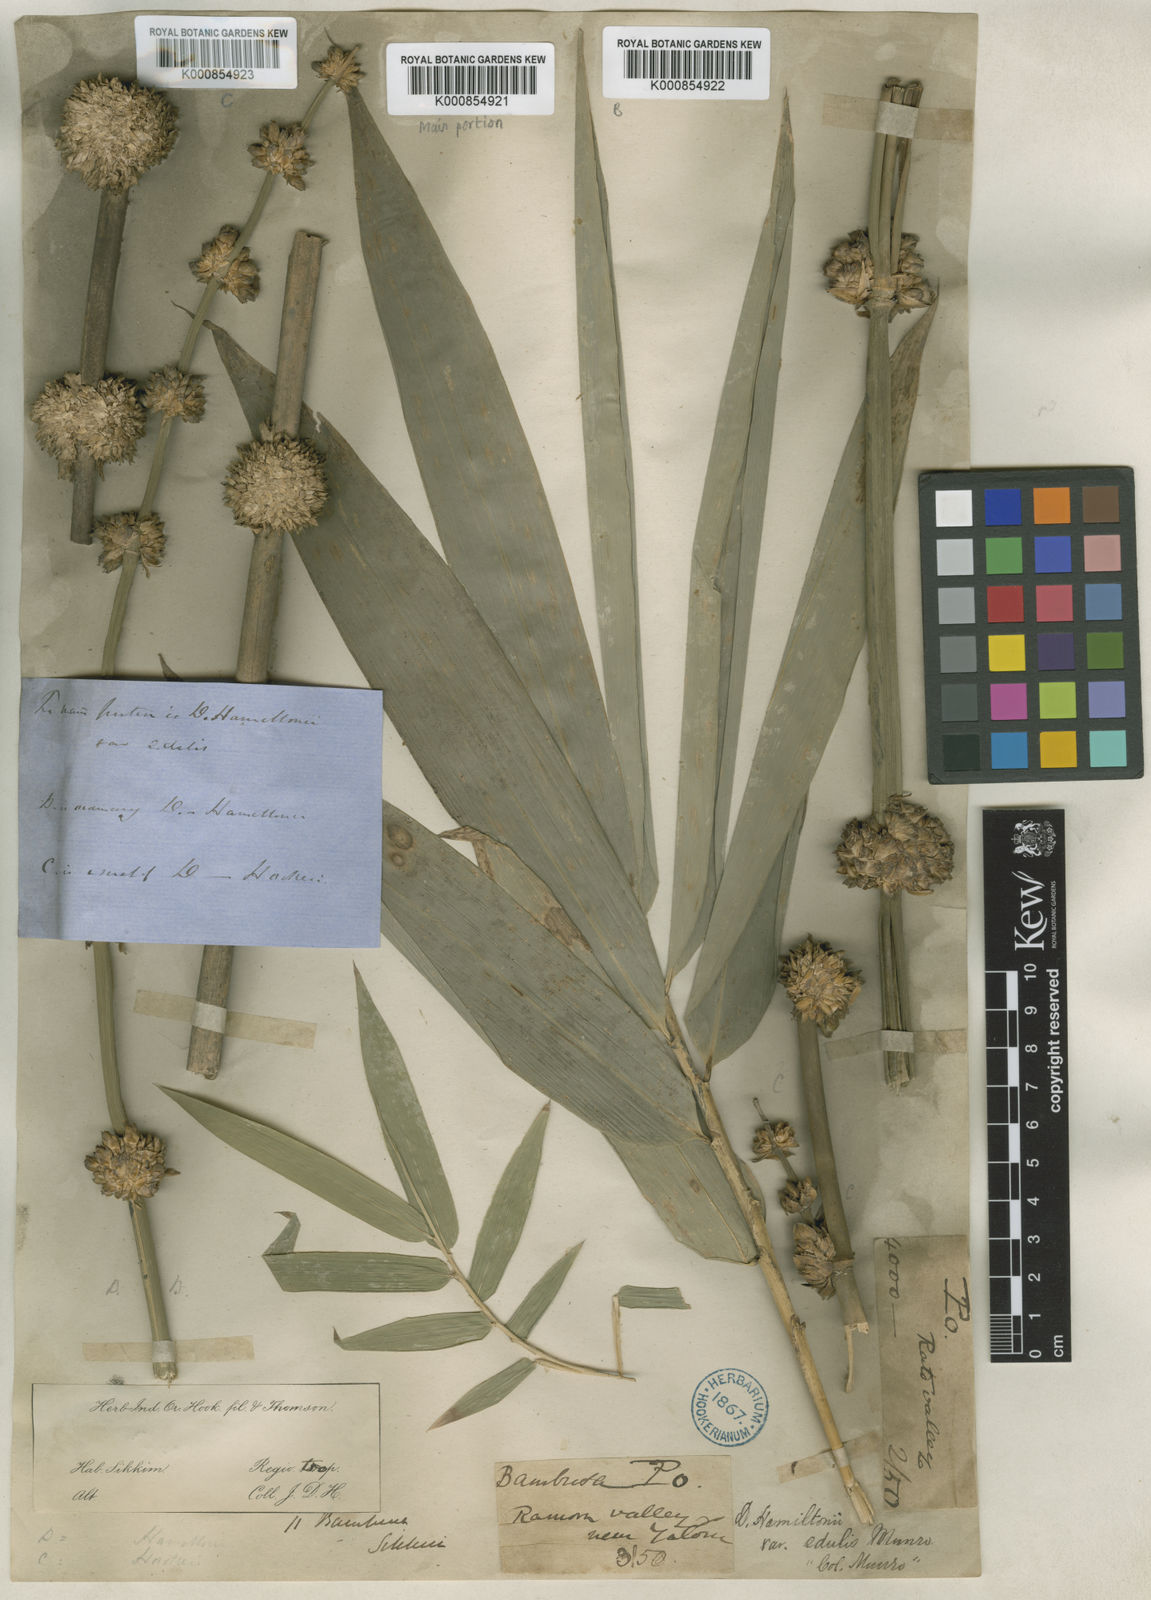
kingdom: Plantae
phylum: Tracheophyta
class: Liliopsida
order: Poales
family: Poaceae
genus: Dendrocalamus
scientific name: Dendrocalamus hamiltonii
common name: Tama bamboo
